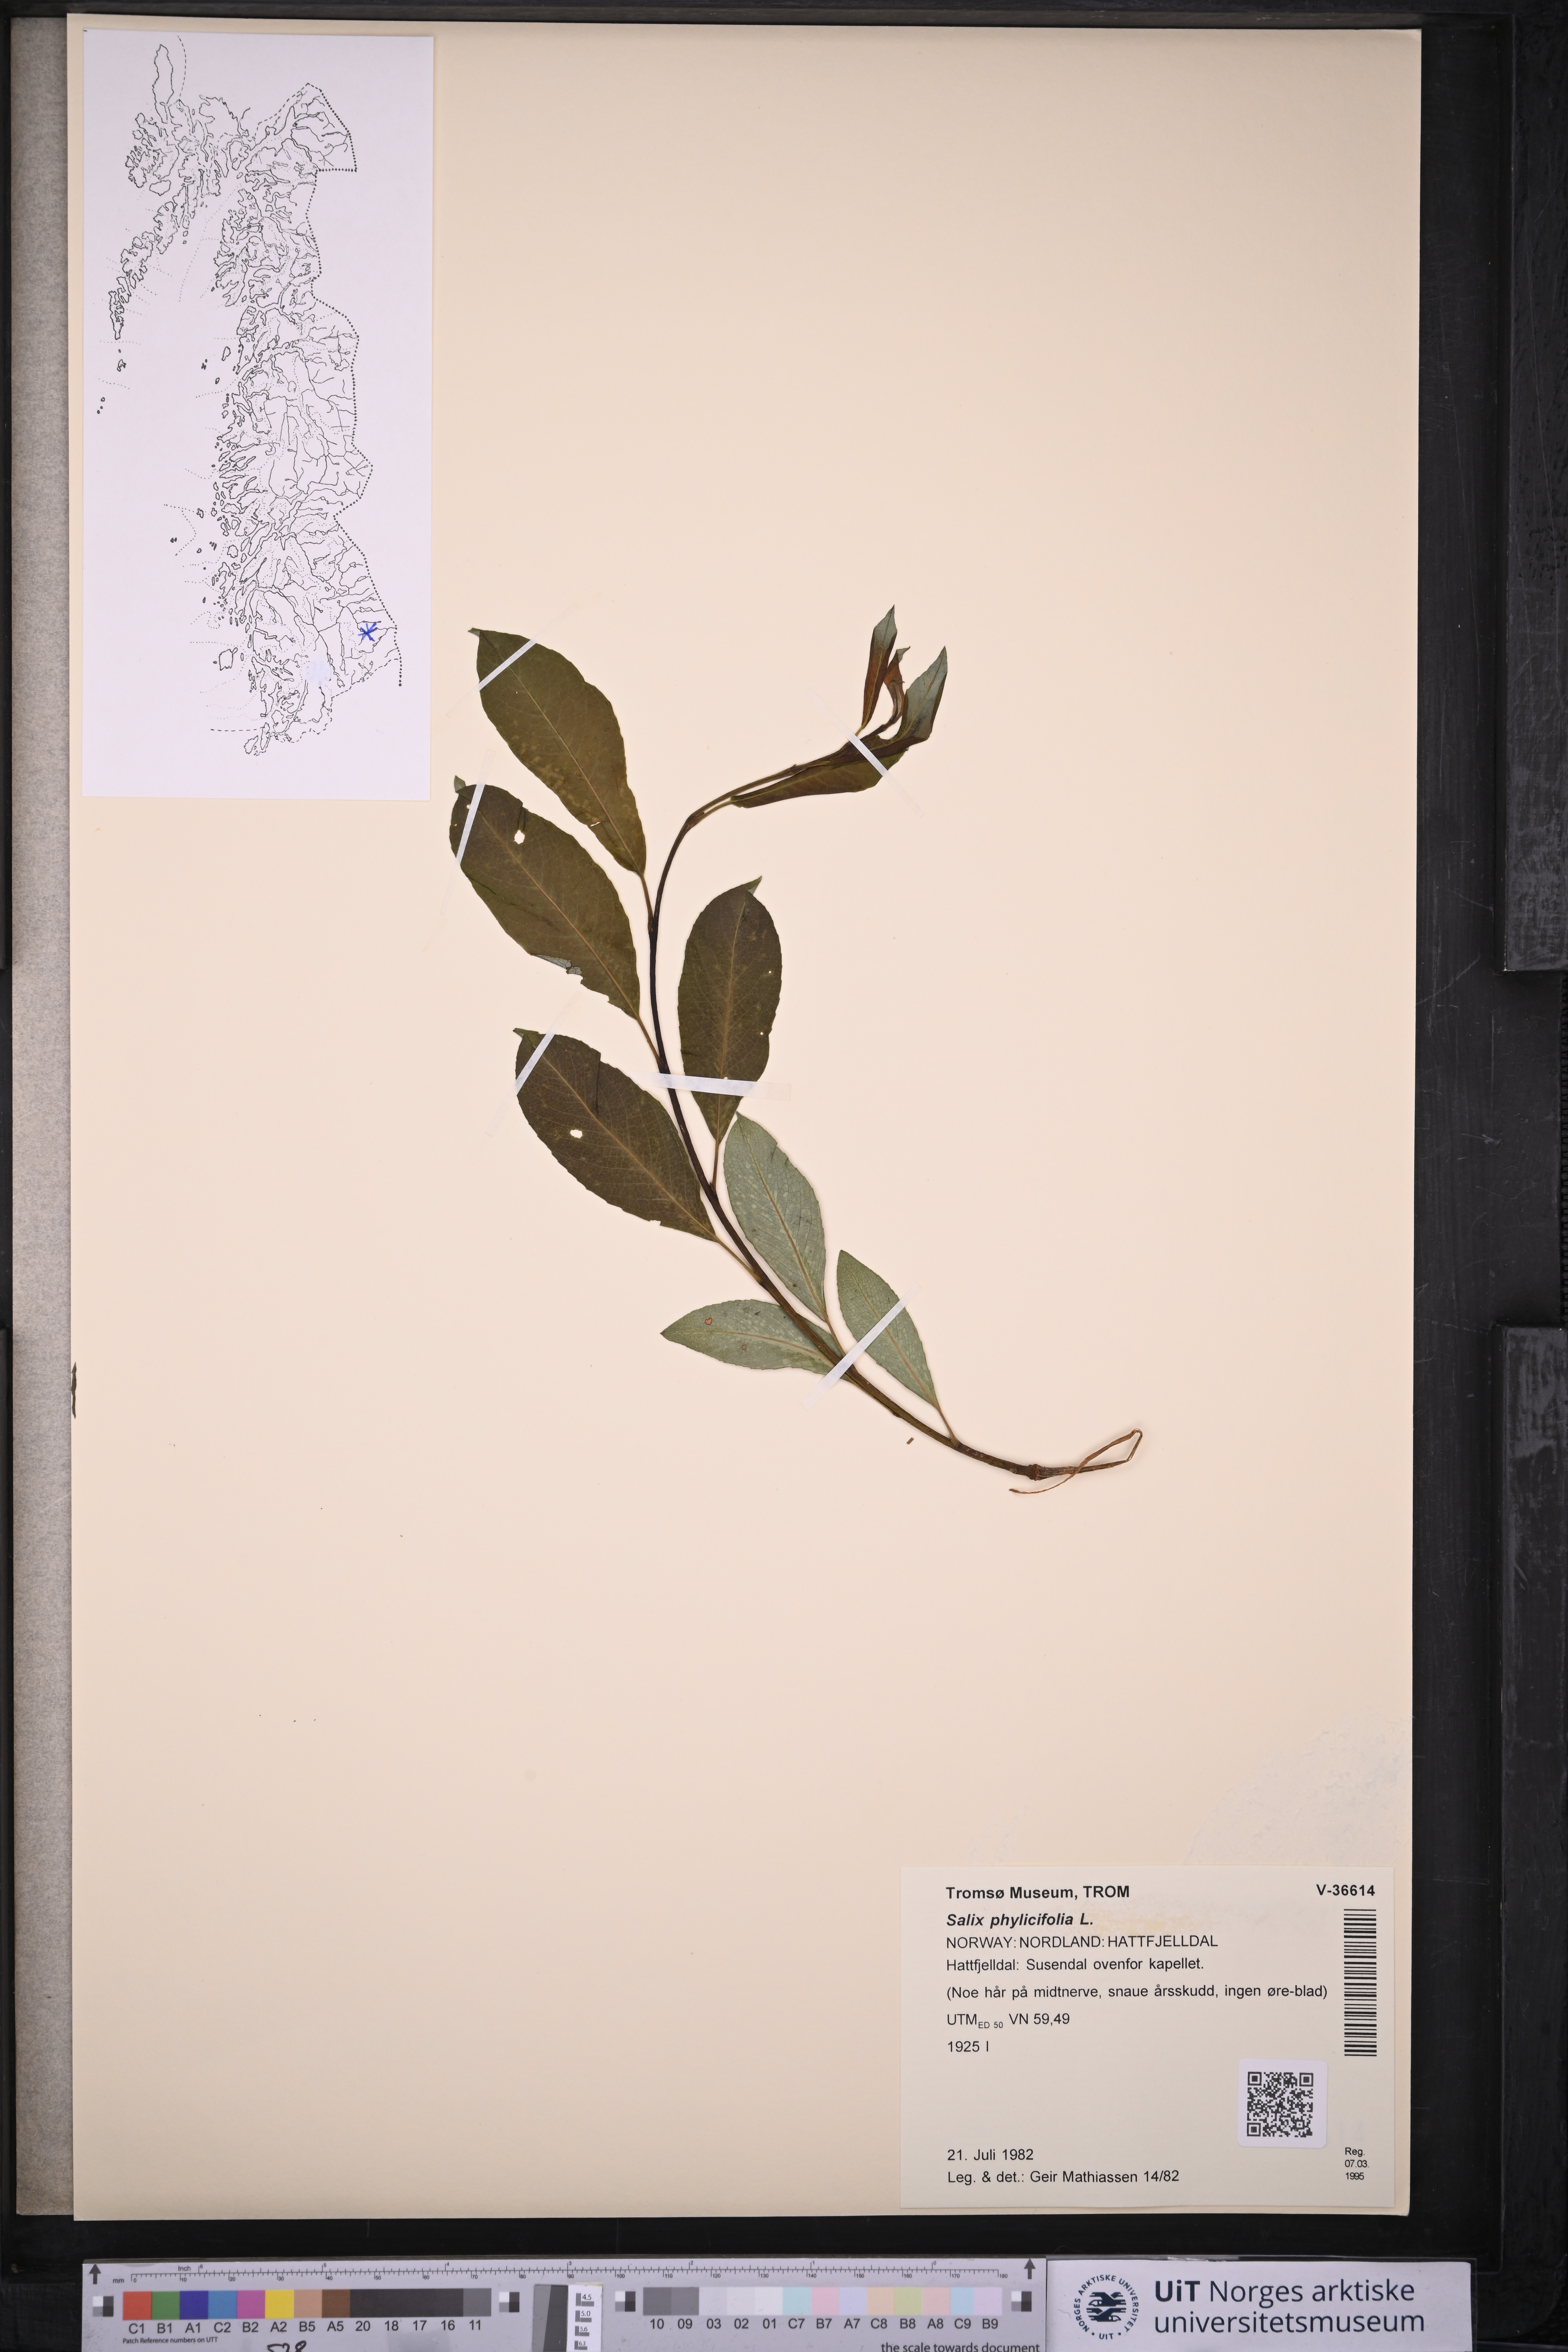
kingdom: Plantae
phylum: Tracheophyta
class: Magnoliopsida
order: Malpighiales
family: Salicaceae
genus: Salix
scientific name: Salix phylicifolia
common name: Tea-leaved willow
